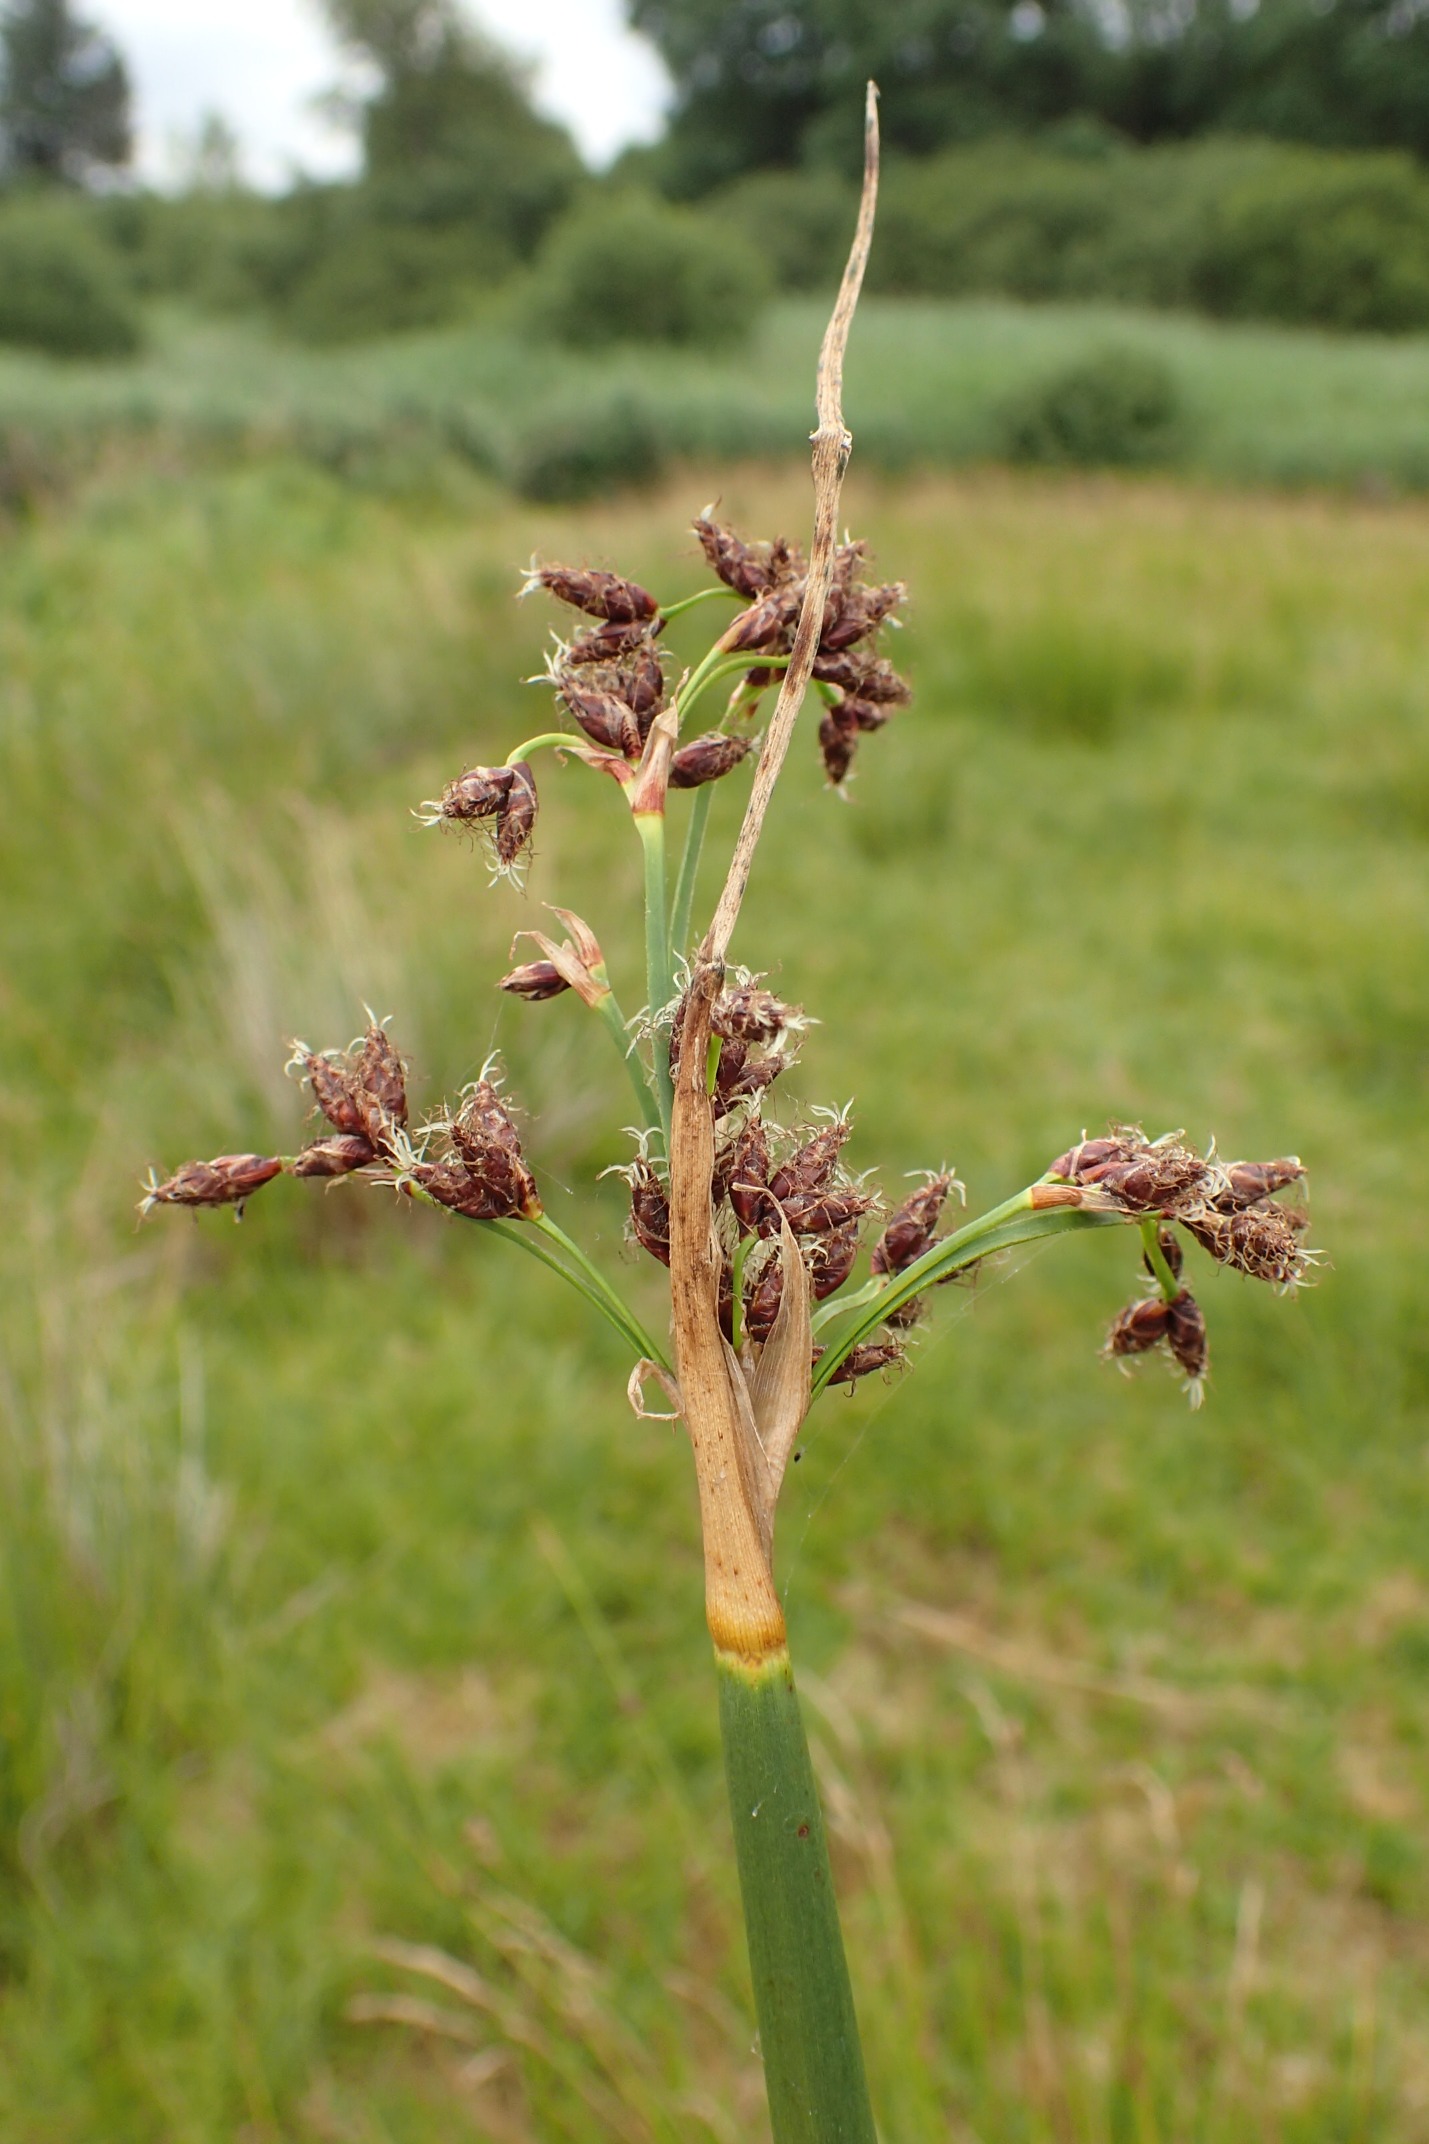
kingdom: Plantae
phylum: Tracheophyta
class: Liliopsida
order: Poales
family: Cyperaceae
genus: Schoenoplectus
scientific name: Schoenoplectus lacustris
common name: Sø-kogleaks
